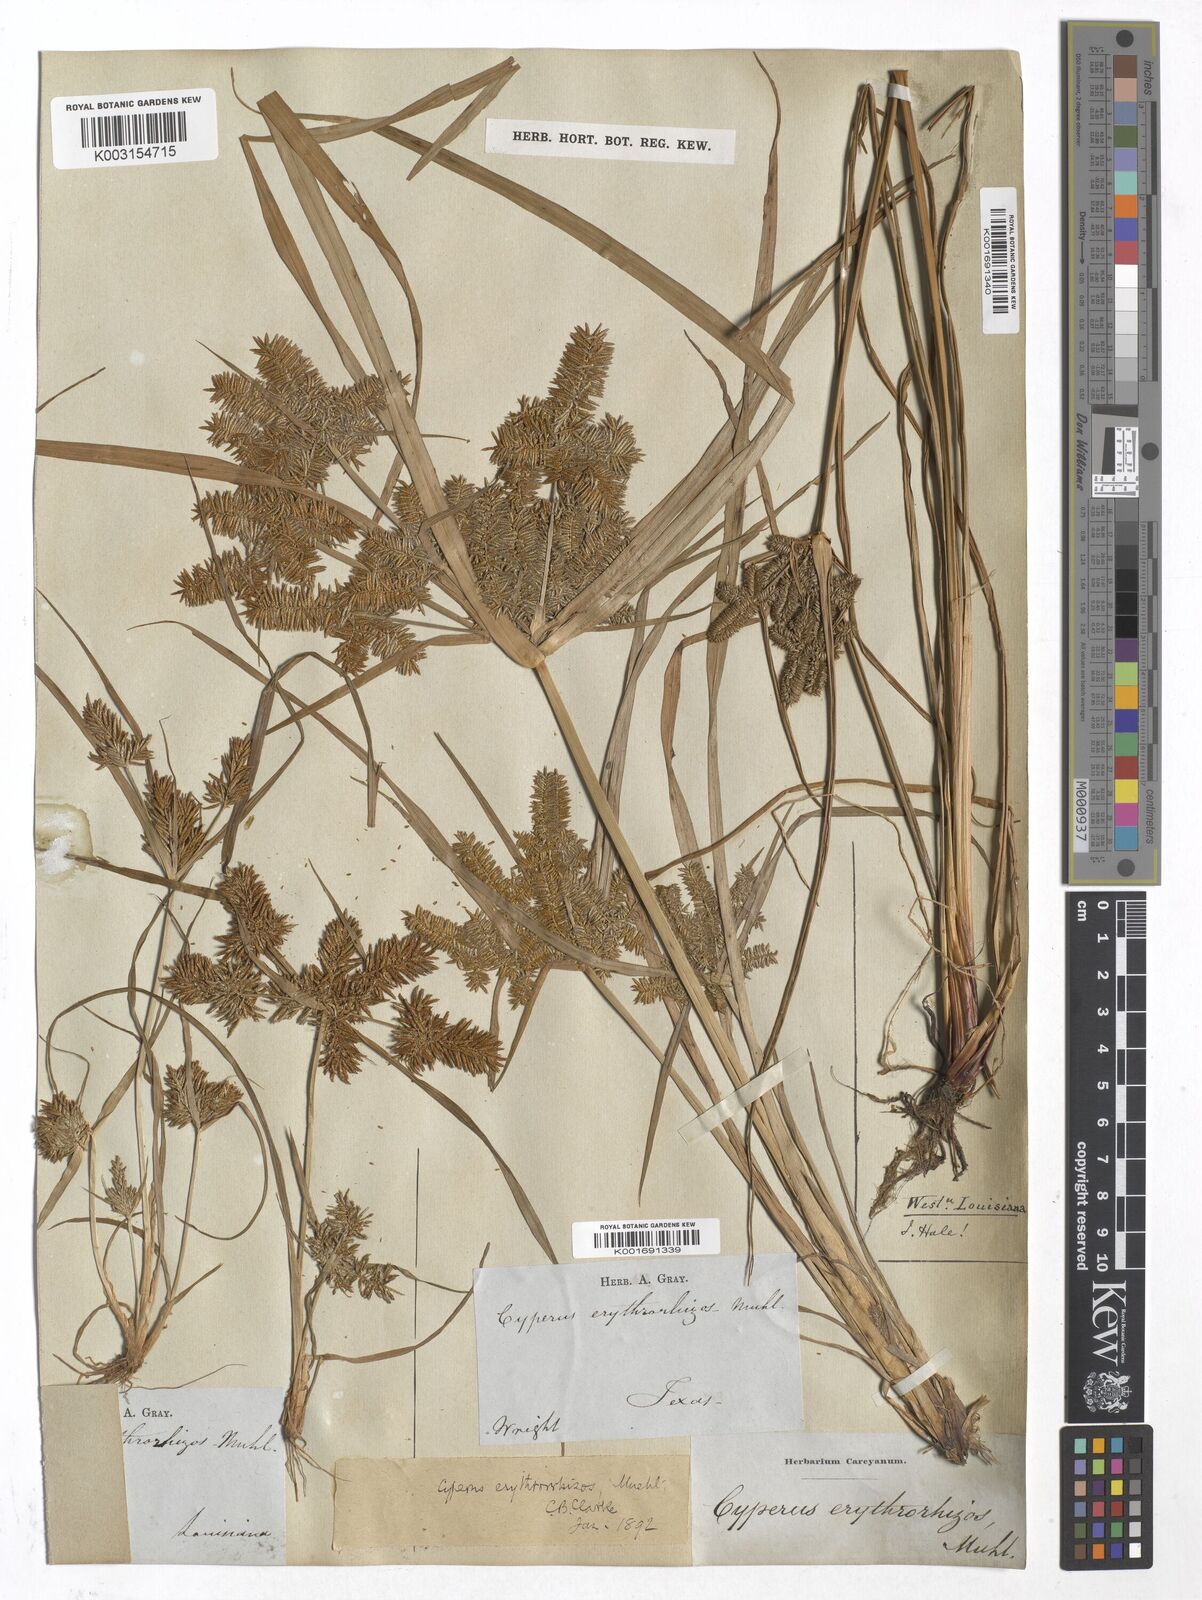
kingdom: Plantae
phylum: Tracheophyta
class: Liliopsida
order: Poales
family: Cyperaceae
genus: Cyperus
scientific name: Cyperus erythrorhizos
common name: Red-root flat sedge
